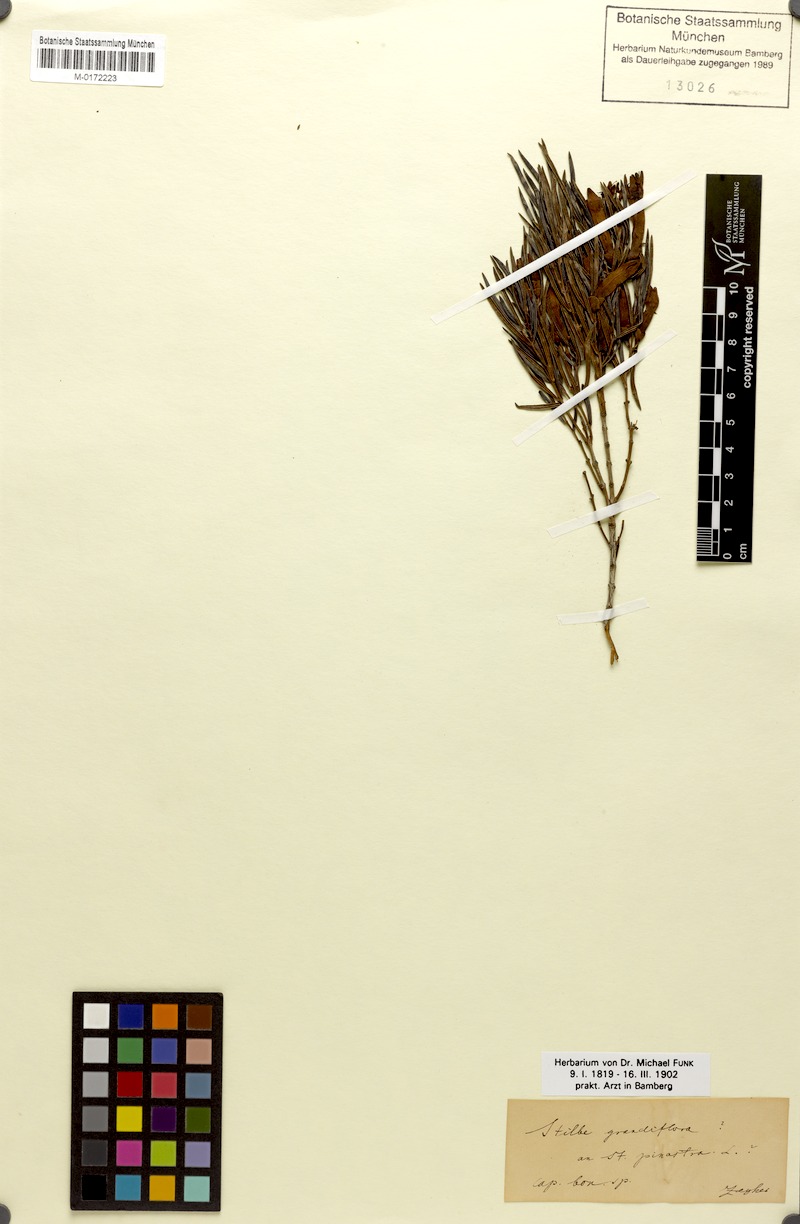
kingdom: Plantae
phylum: Tracheophyta
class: Magnoliopsida
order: Lamiales
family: Stilbaceae
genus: Stilbe
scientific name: Stilbe vestita
